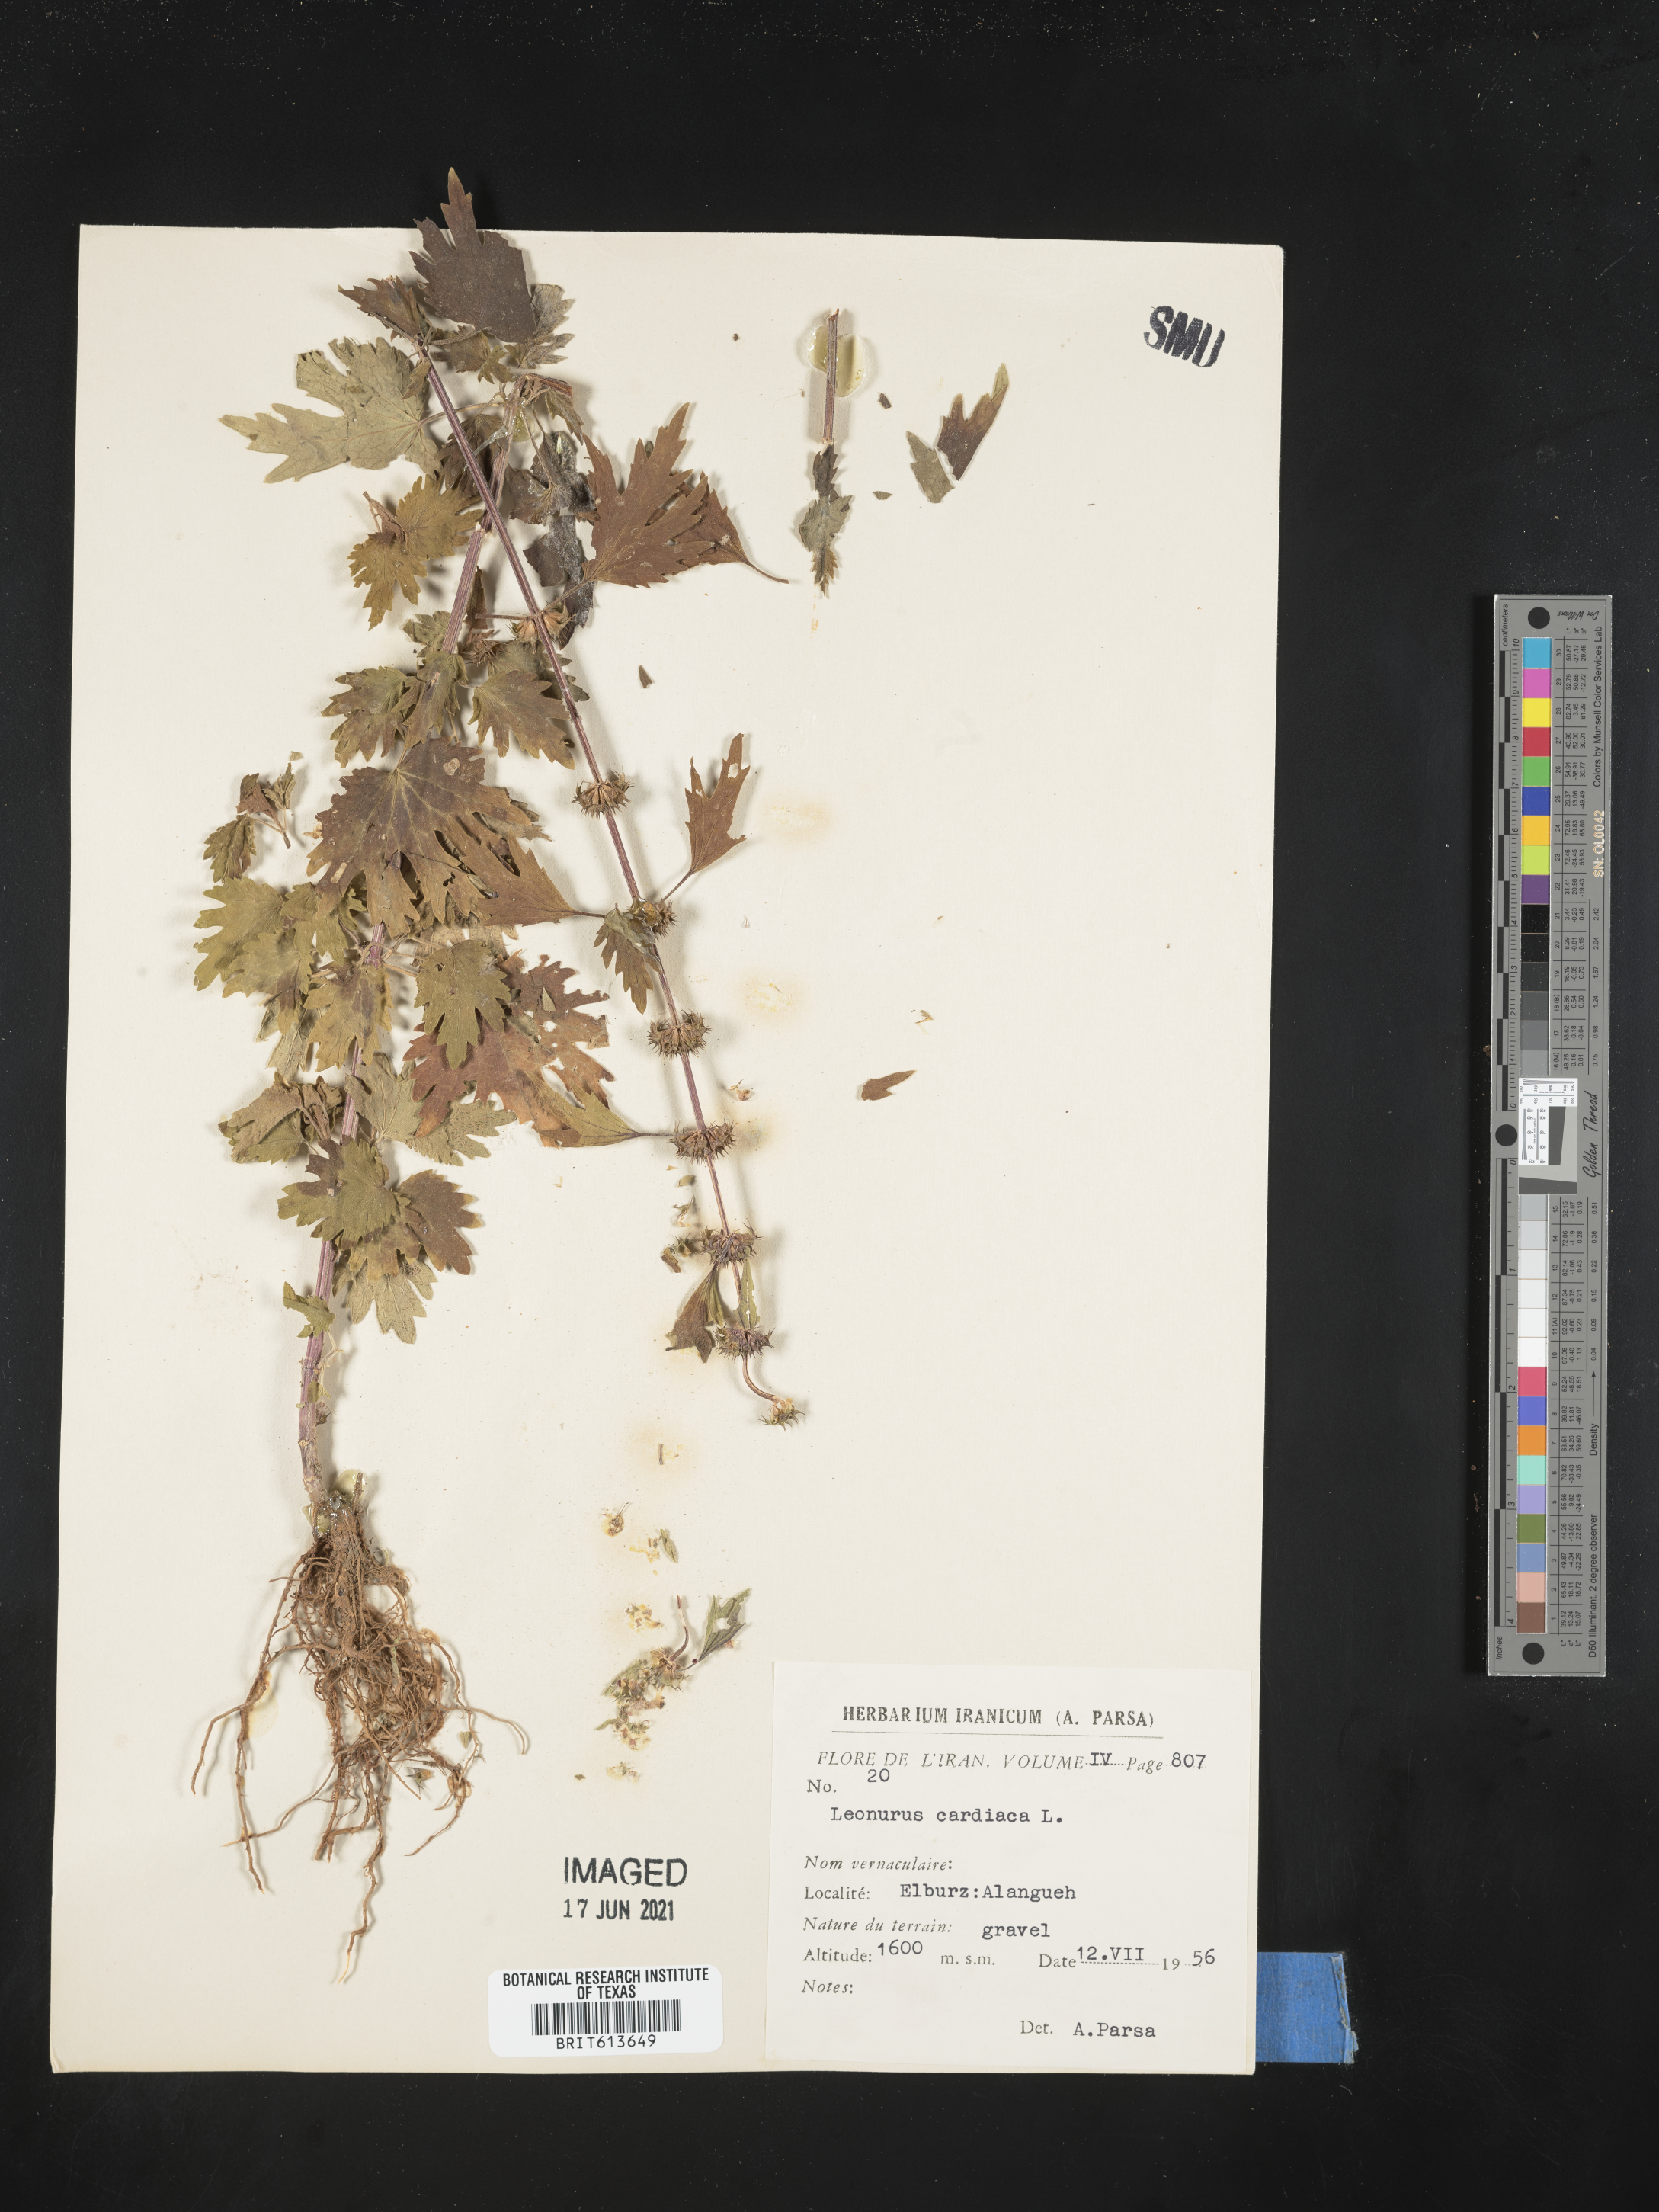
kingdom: Plantae
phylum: Tracheophyta
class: Magnoliopsida
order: Lamiales
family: Lamiaceae
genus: Leonurus
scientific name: Leonurus cardiaca
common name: Motherwort
